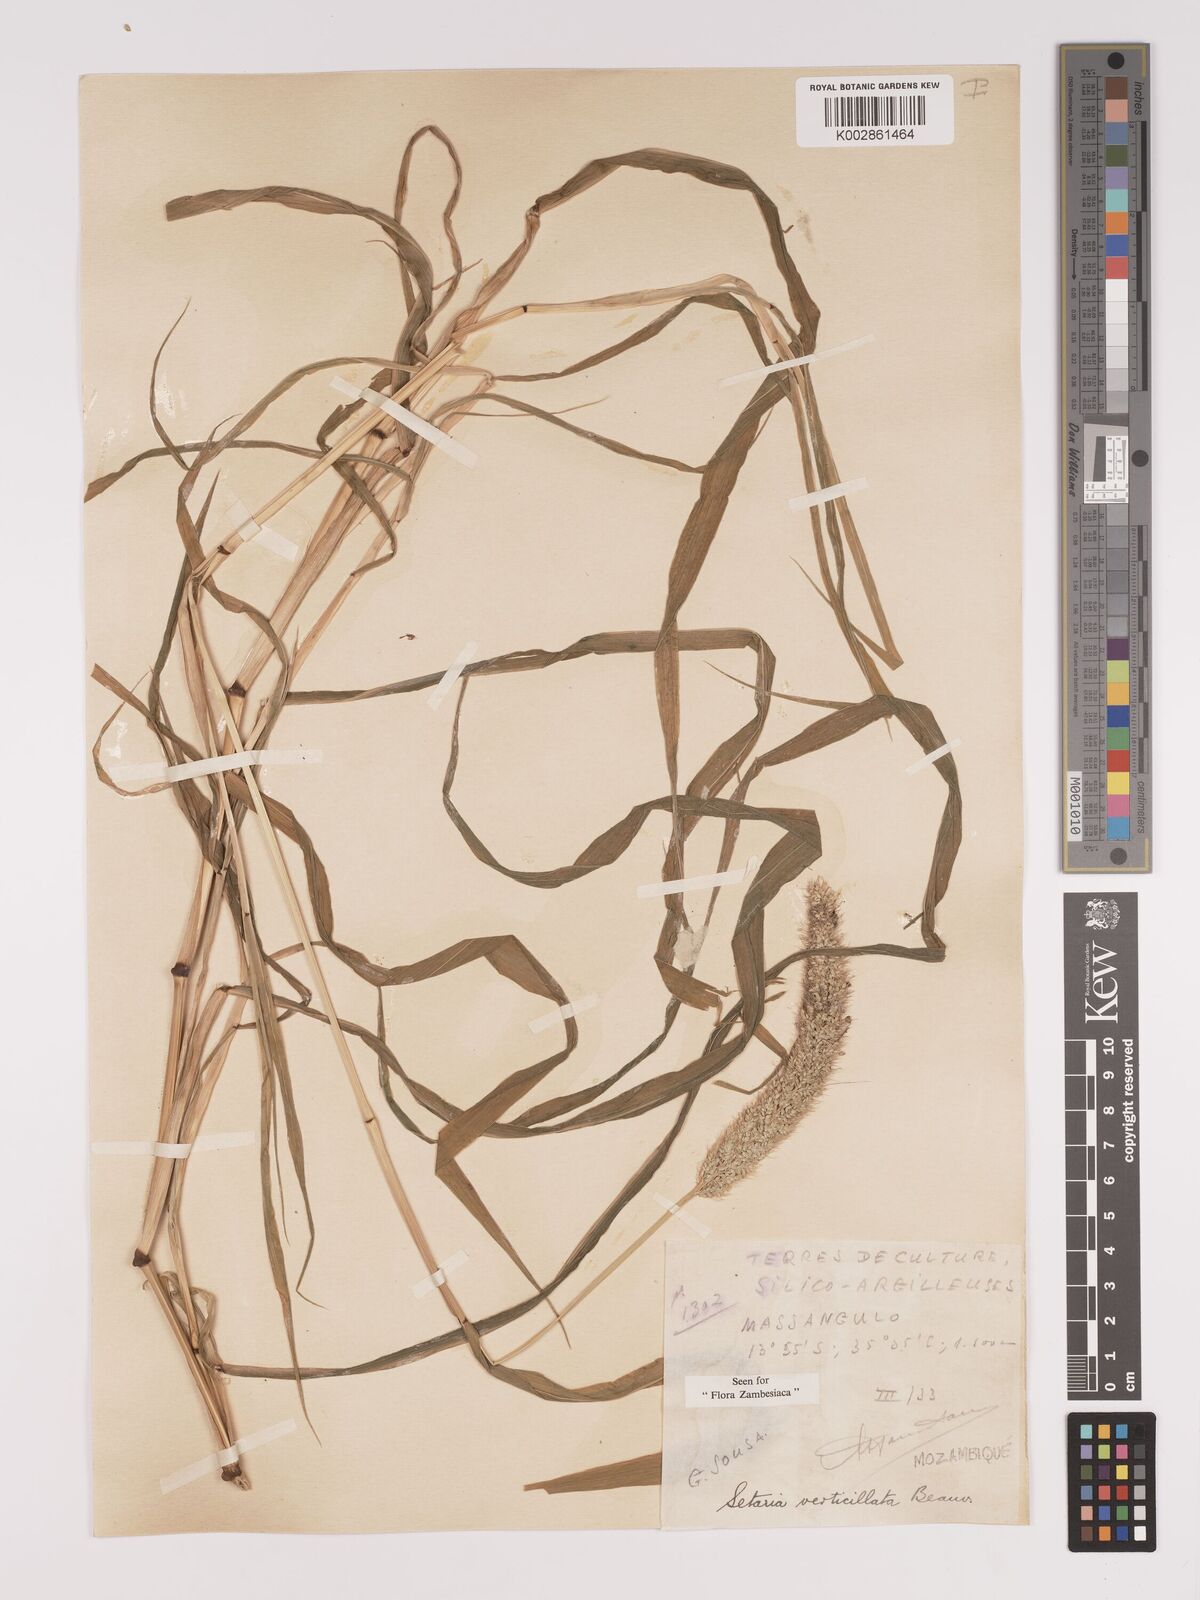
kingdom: Plantae
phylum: Tracheophyta
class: Liliopsida
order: Poales
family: Poaceae
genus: Setaria
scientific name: Setaria verticillata
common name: Hooked bristlegrass
